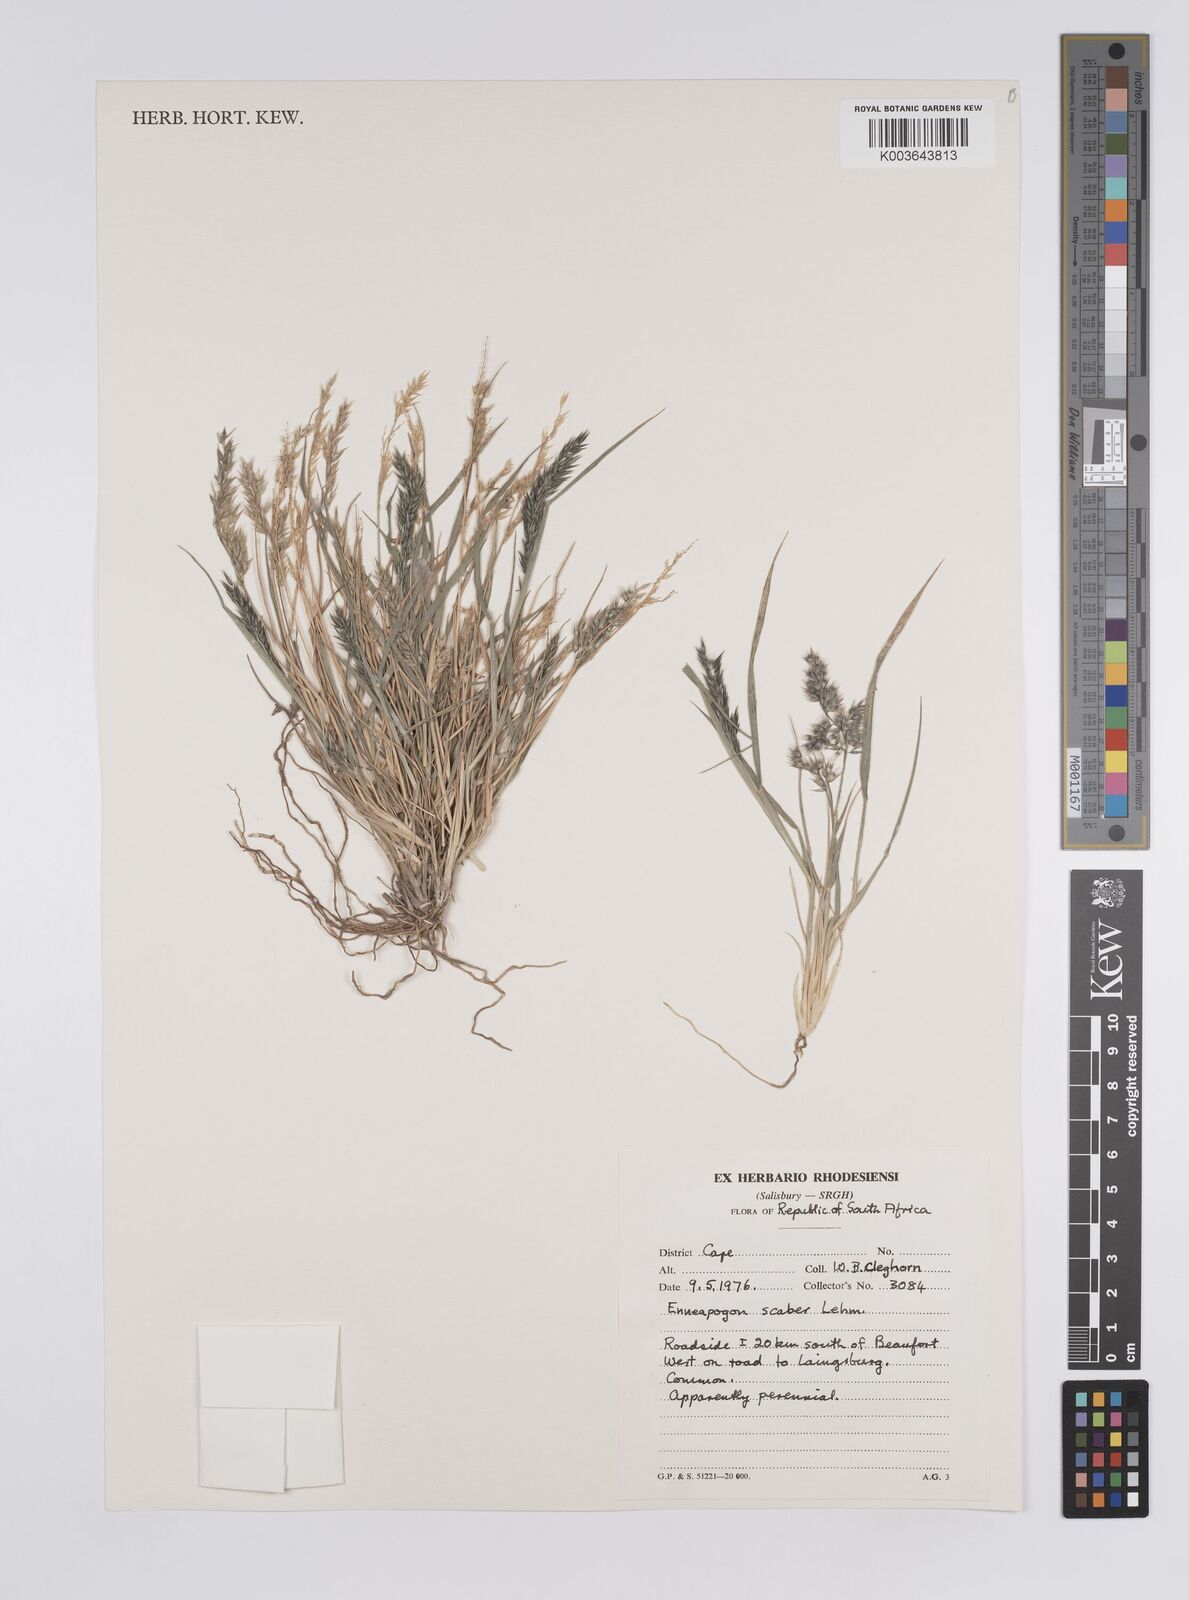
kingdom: Plantae
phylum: Tracheophyta
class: Liliopsida
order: Poales
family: Poaceae
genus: Enneapogon
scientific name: Enneapogon scaber
